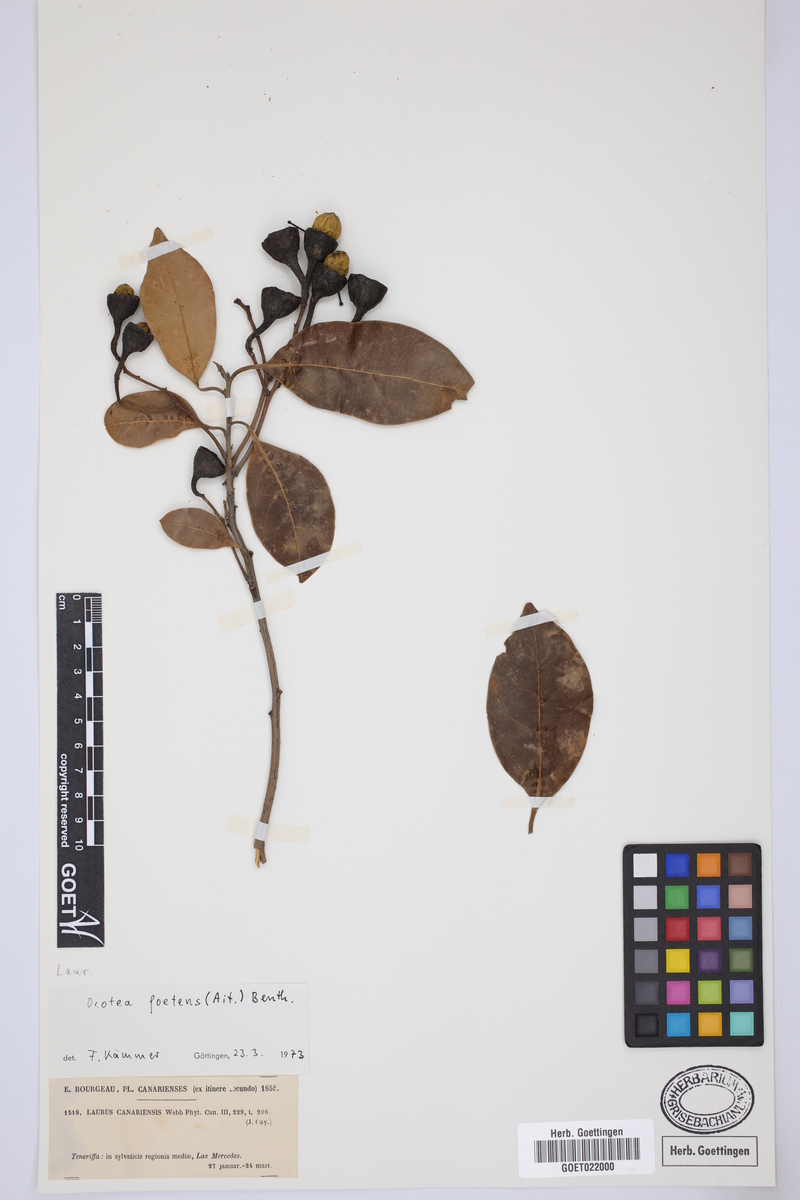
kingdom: Plantae
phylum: Tracheophyta
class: Magnoliopsida
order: Laurales
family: Lauraceae
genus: Mespilodaphne
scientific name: Mespilodaphne foetens
